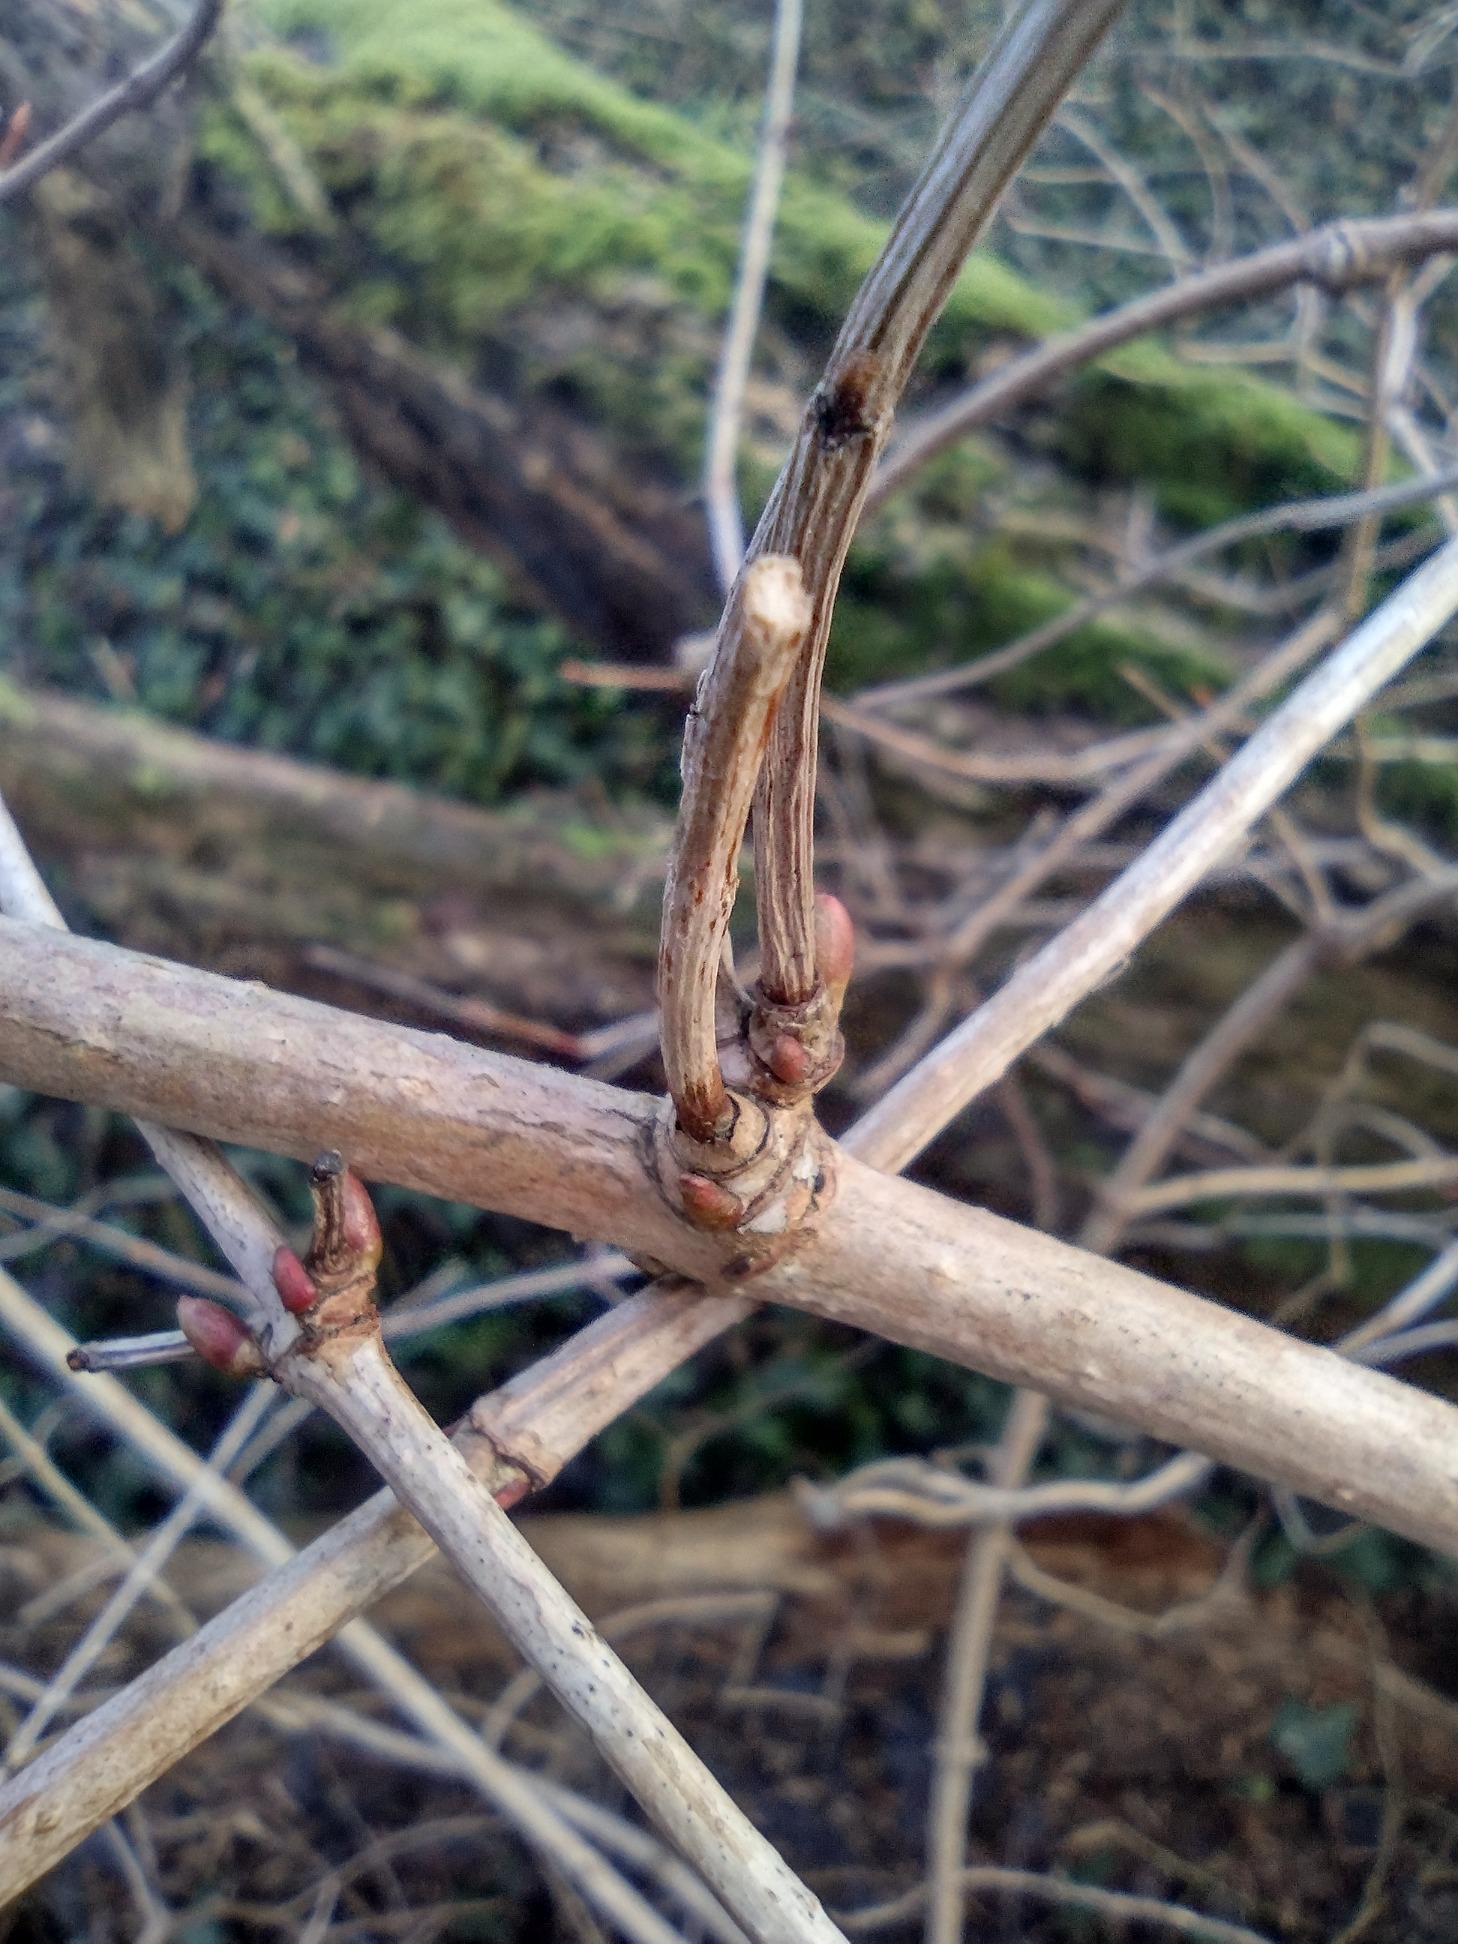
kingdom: Plantae
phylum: Tracheophyta
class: Magnoliopsida
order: Dipsacales
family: Viburnaceae
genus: Viburnum
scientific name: Viburnum opulus
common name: Kvalkved
